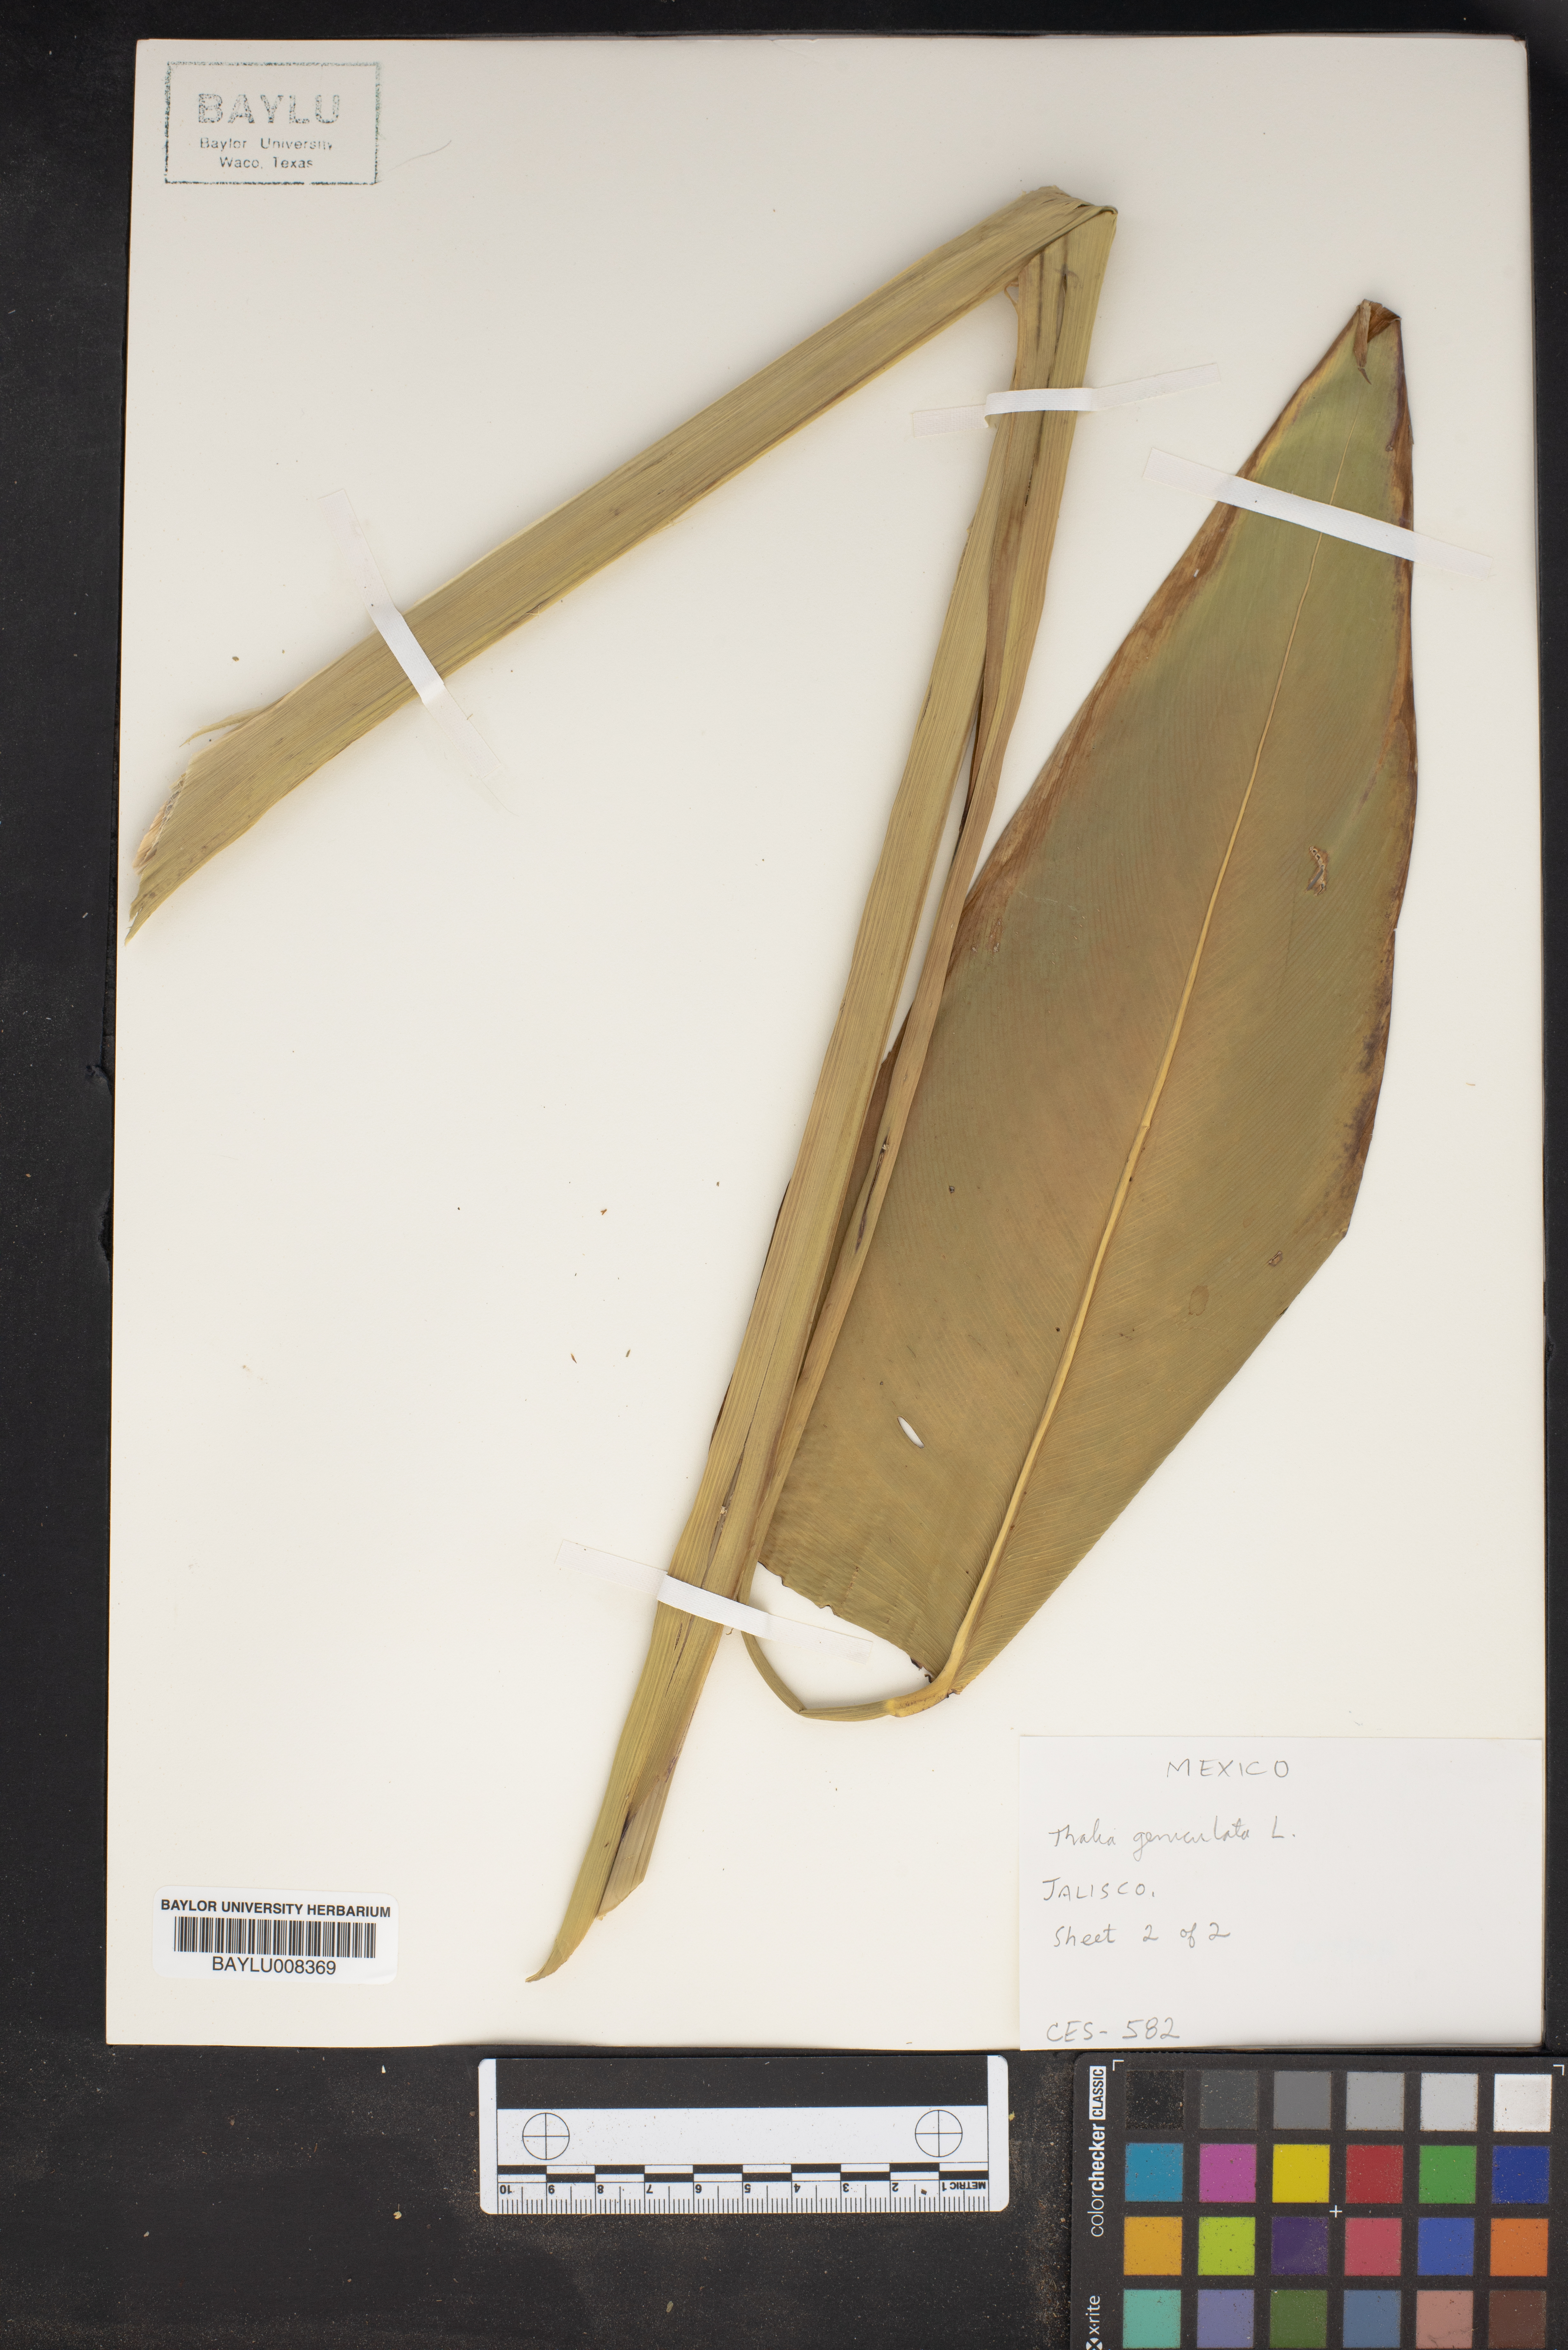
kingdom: Plantae
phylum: Tracheophyta
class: Liliopsida
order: Zingiberales
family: Marantaceae
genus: Thalia
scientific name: Thalia geniculata
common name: Arrowroot
